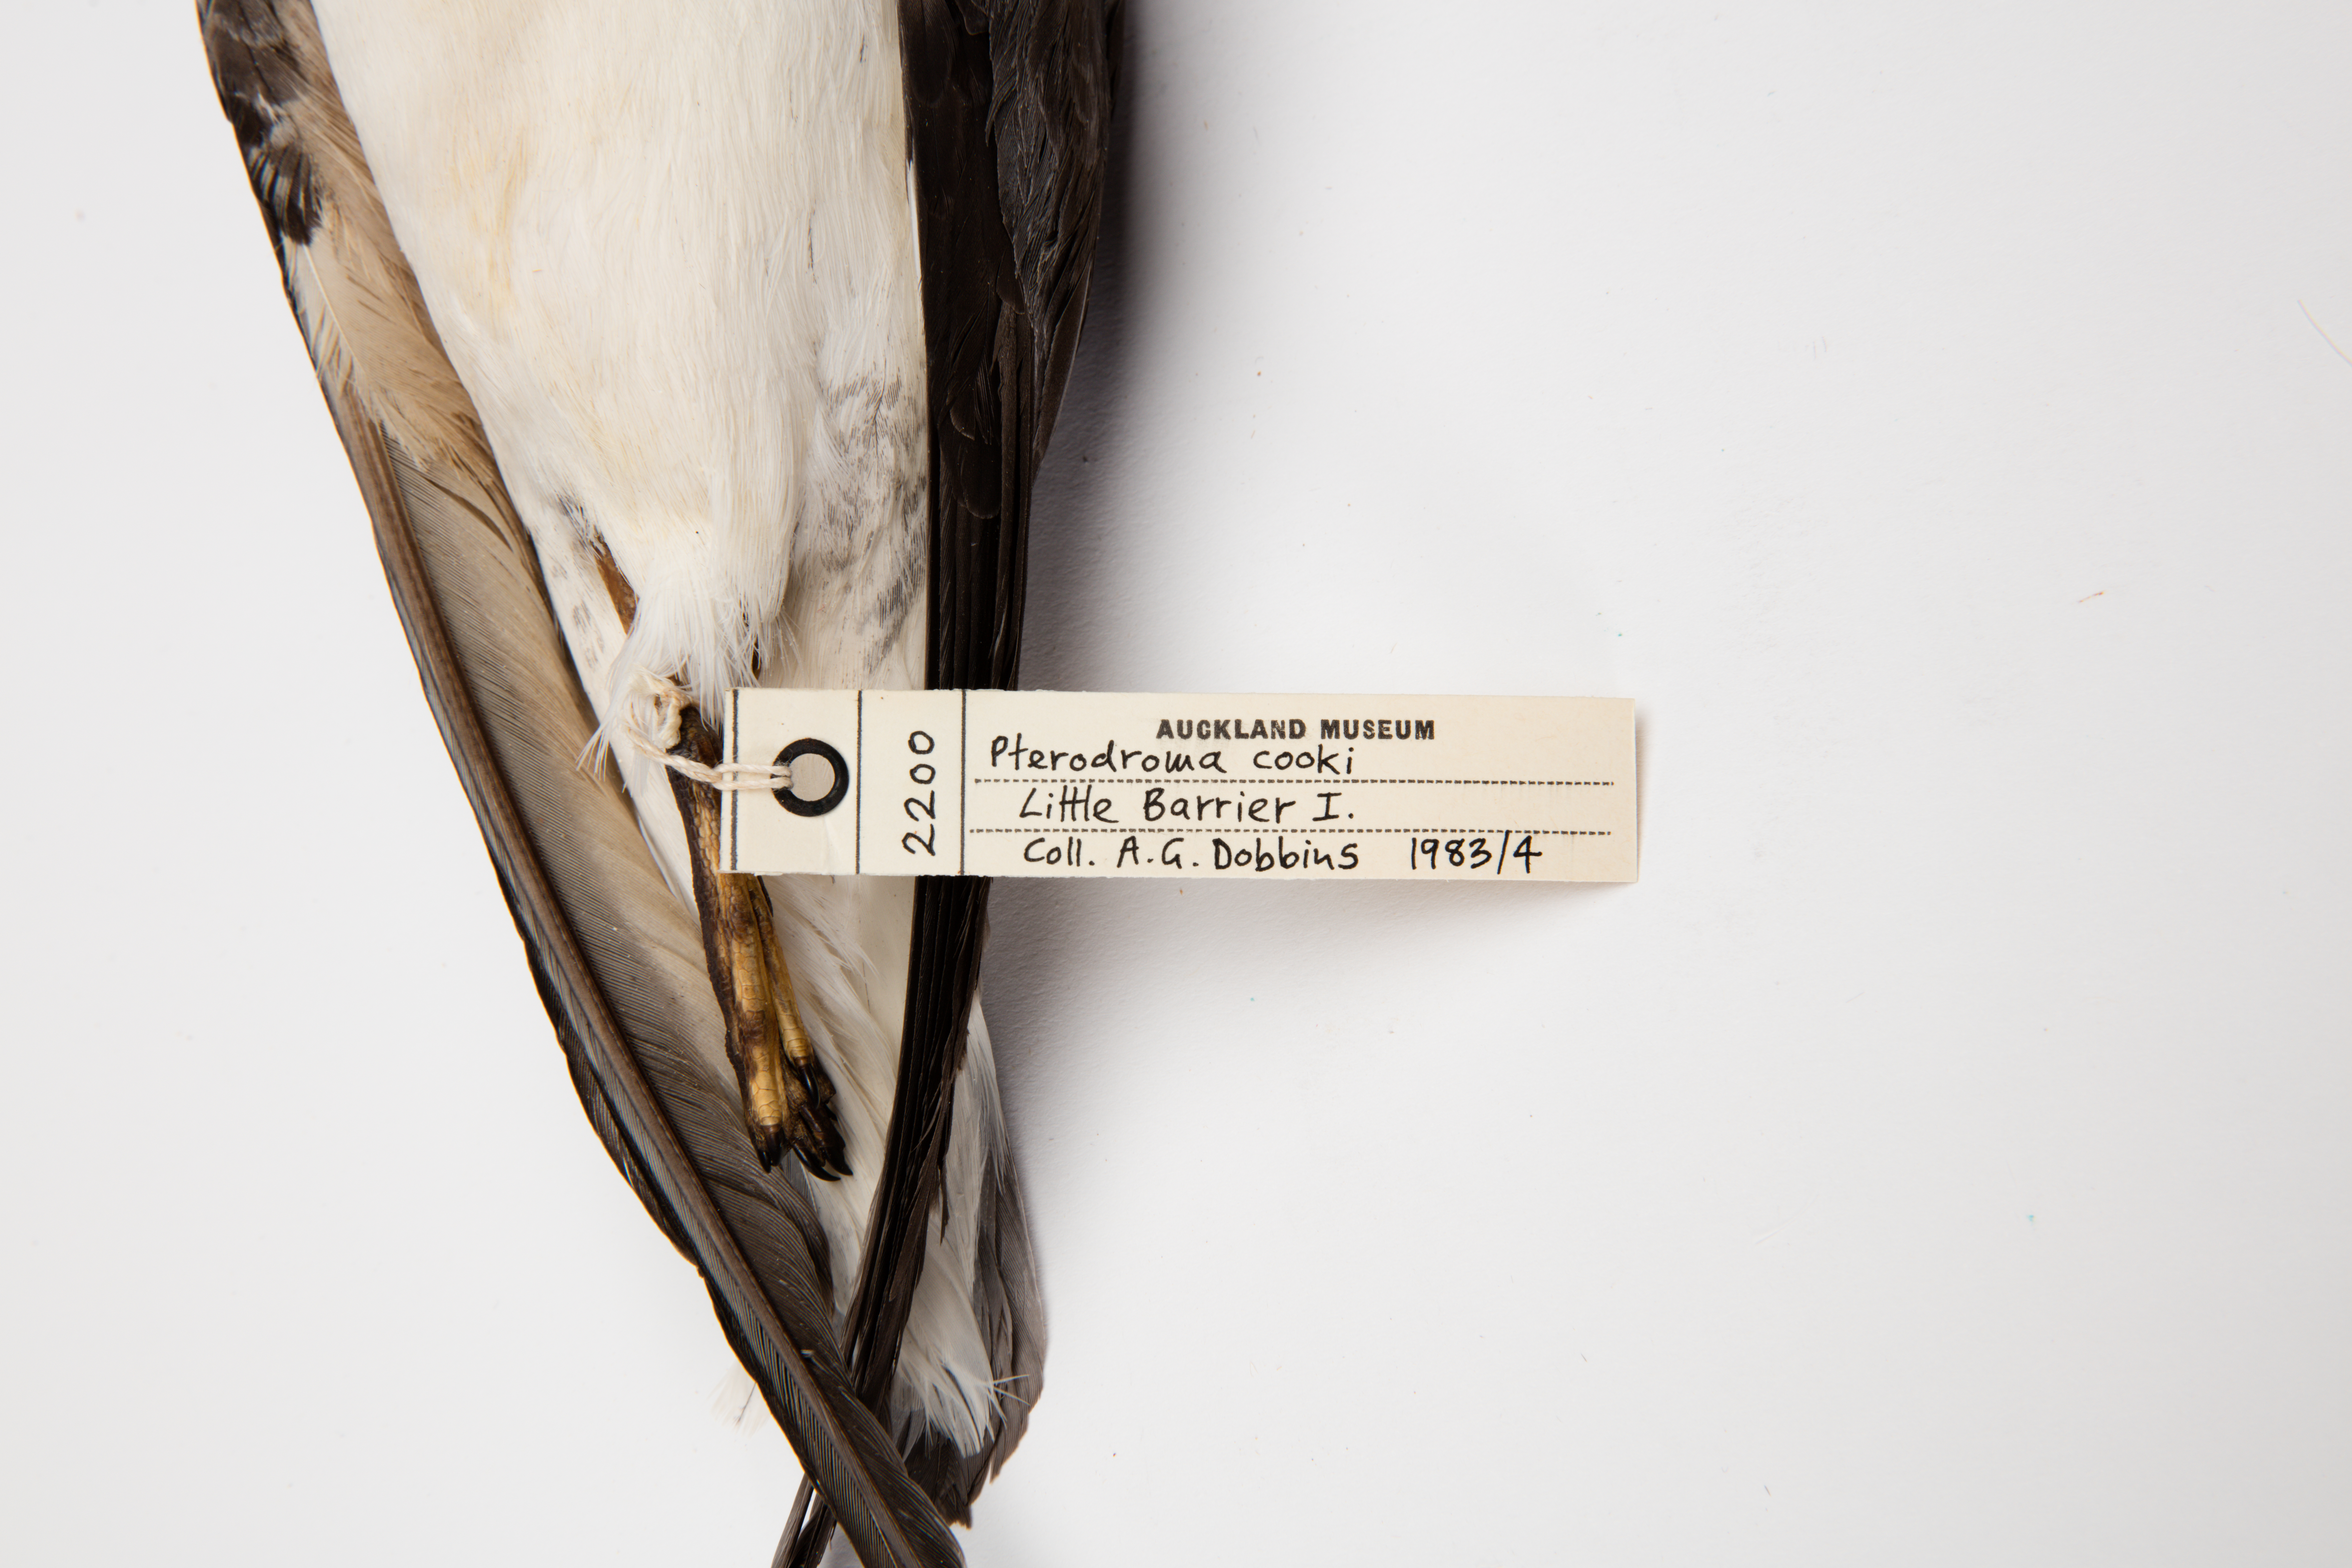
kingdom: Animalia
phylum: Chordata
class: Aves
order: Procellariiformes
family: Procellariidae
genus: Pterodroma
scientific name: Pterodroma cookii
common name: Cook's petrel
